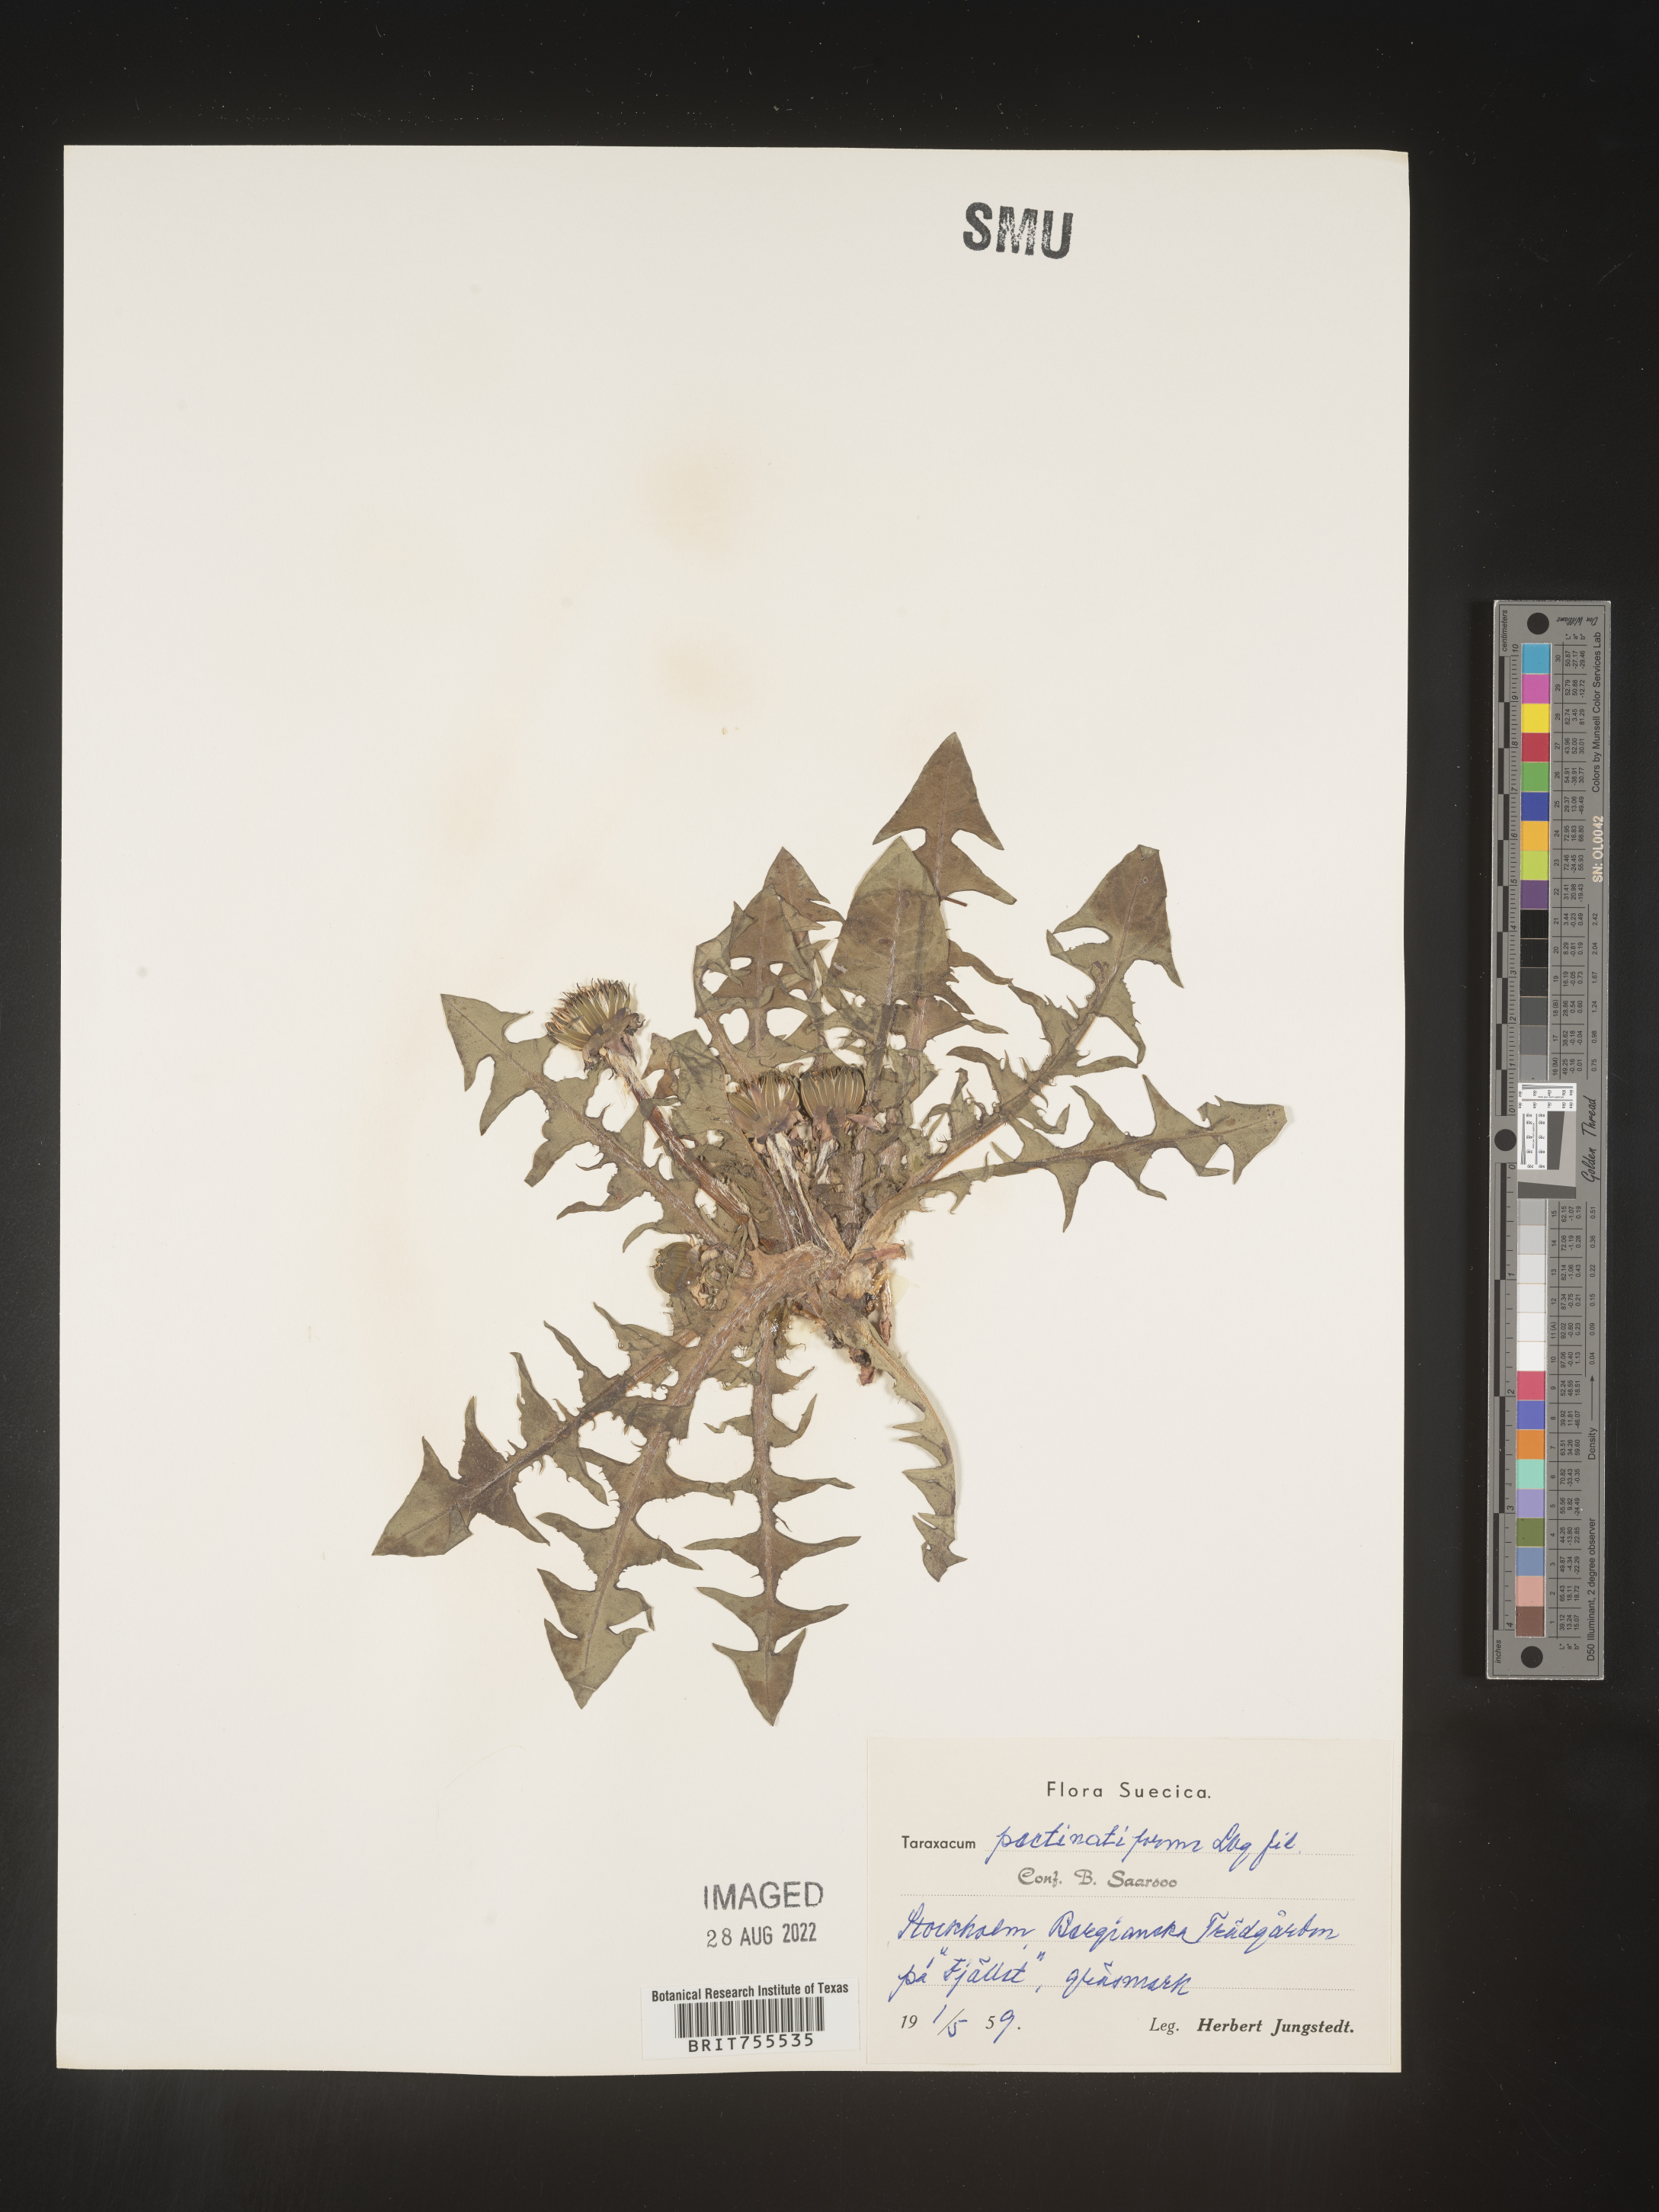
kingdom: Plantae
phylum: Tracheophyta
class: Magnoliopsida
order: Asterales
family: Asteraceae
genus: Taraxacum
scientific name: Taraxacum
